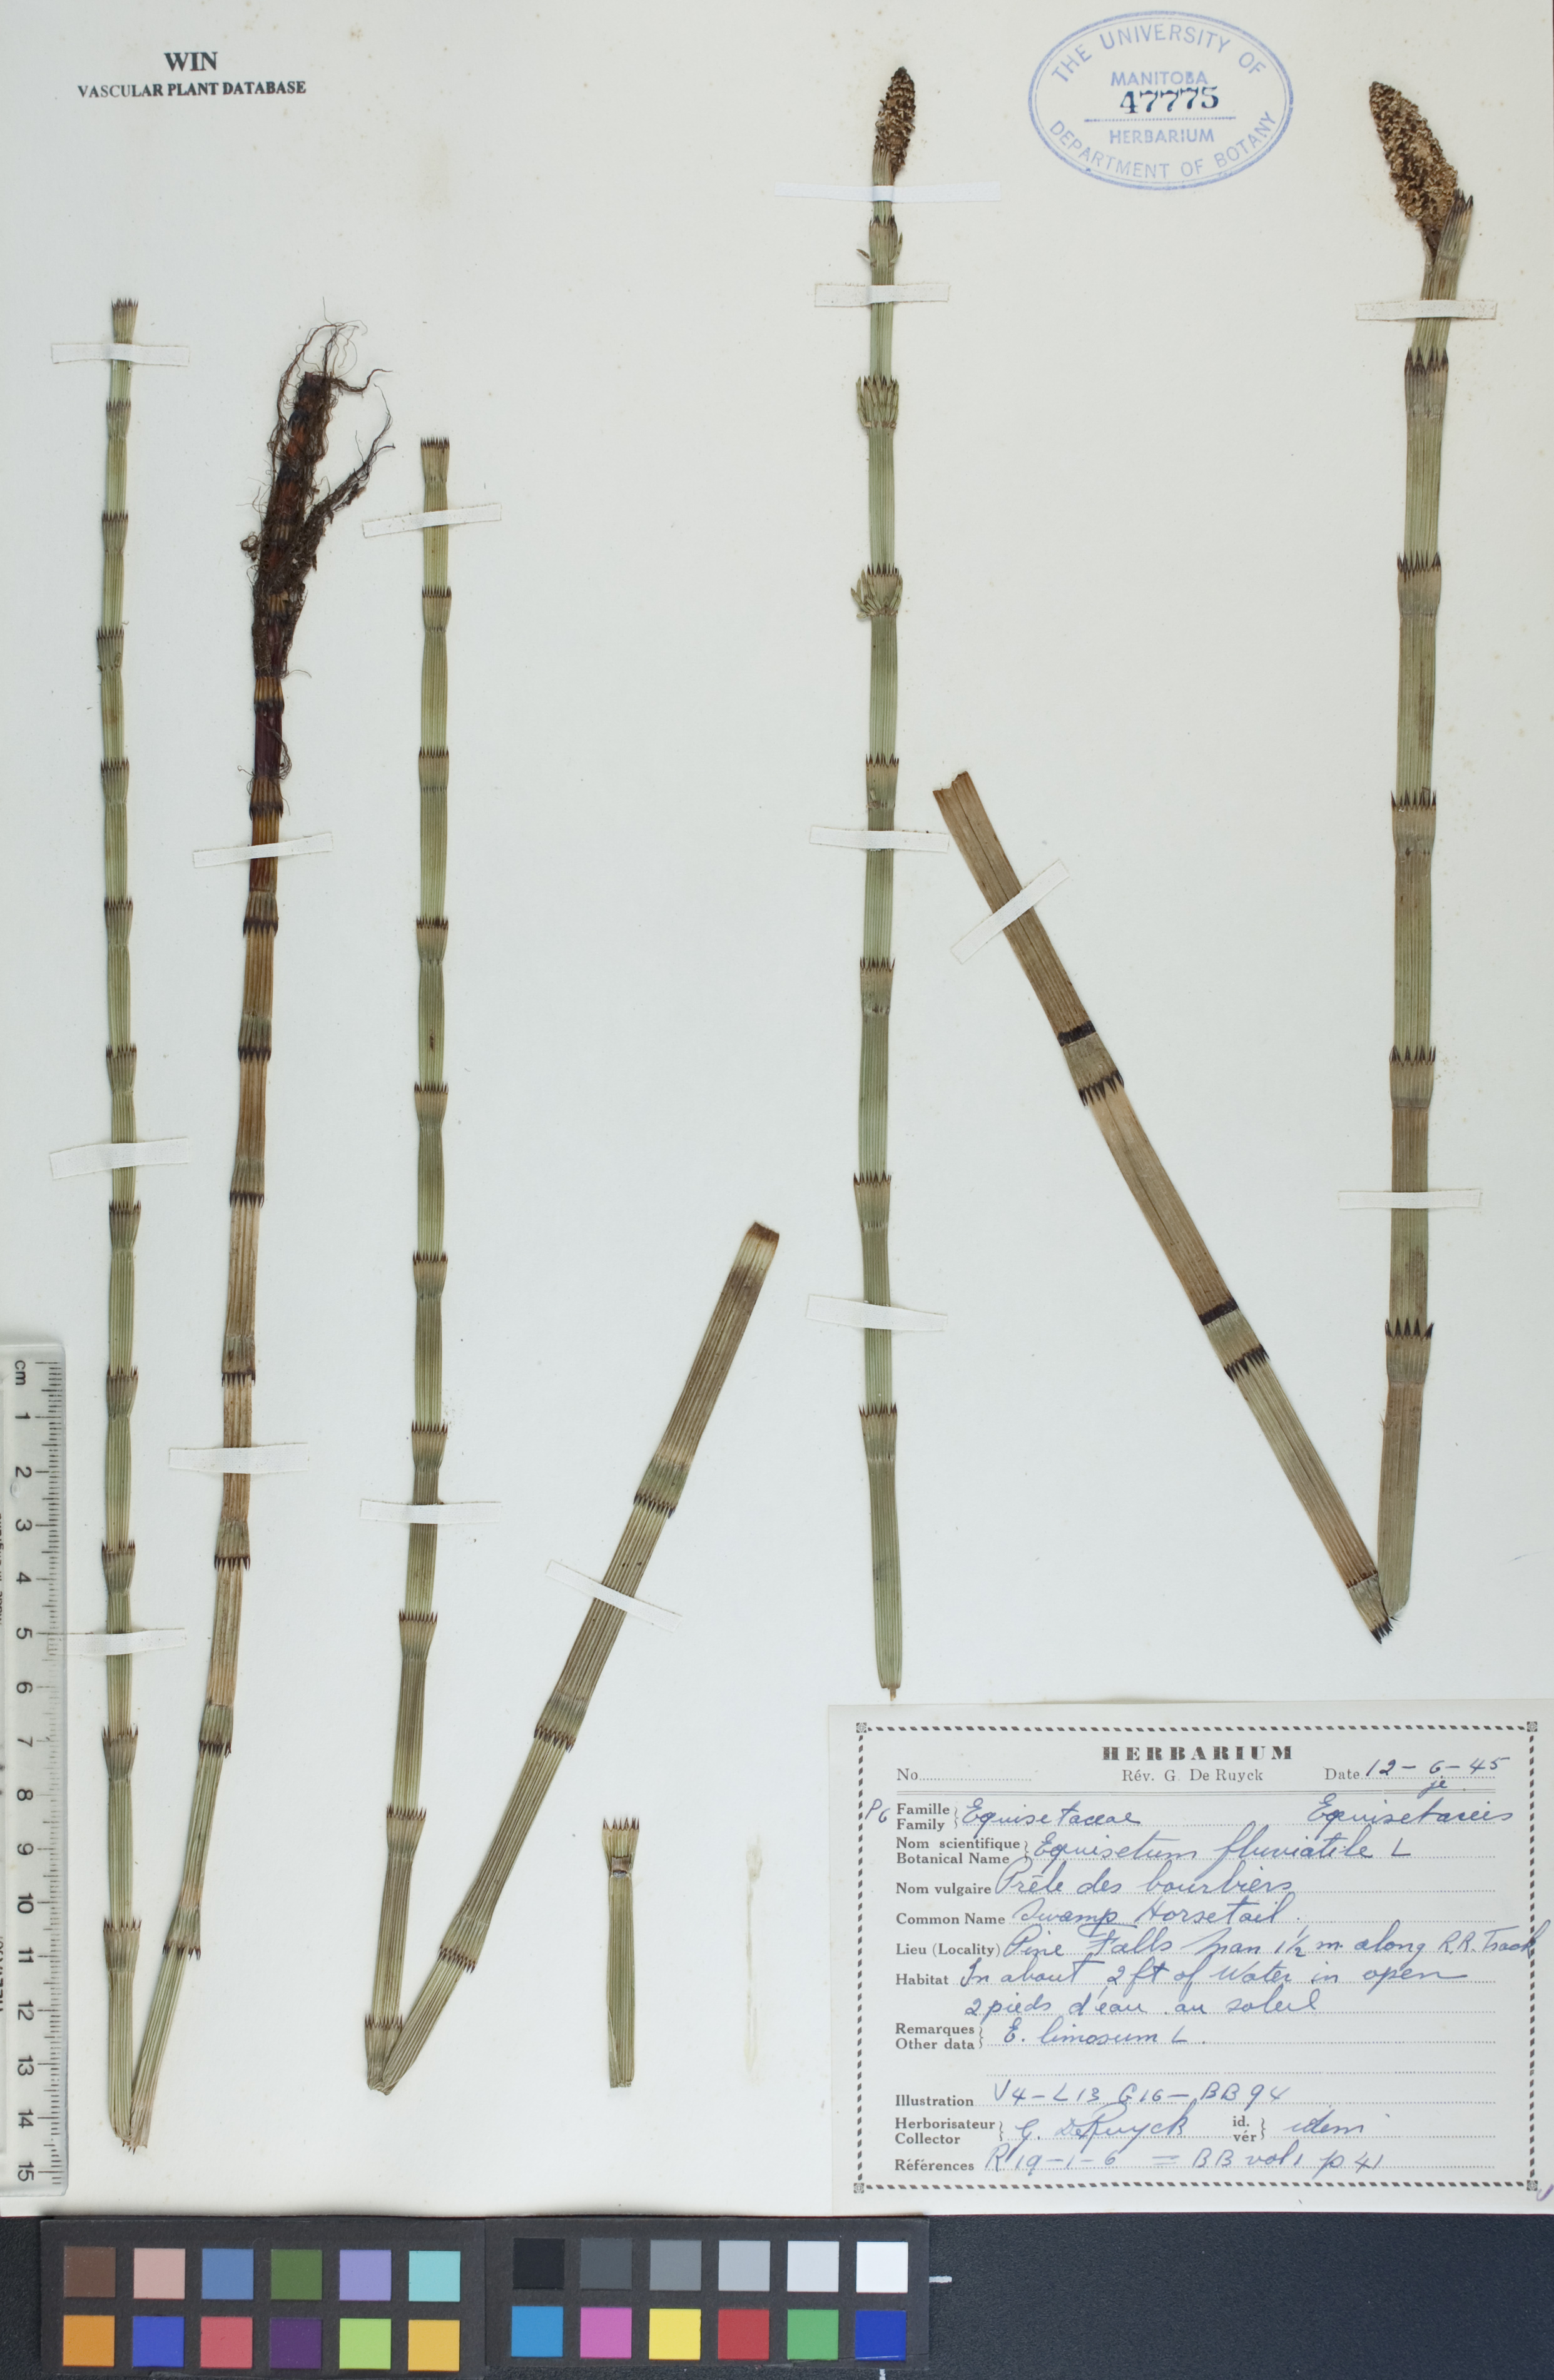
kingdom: Plantae
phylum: Tracheophyta
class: Polypodiopsida
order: Equisetales
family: Equisetaceae
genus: Equisetum
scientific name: Equisetum fluviatile
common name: Water horsetail
